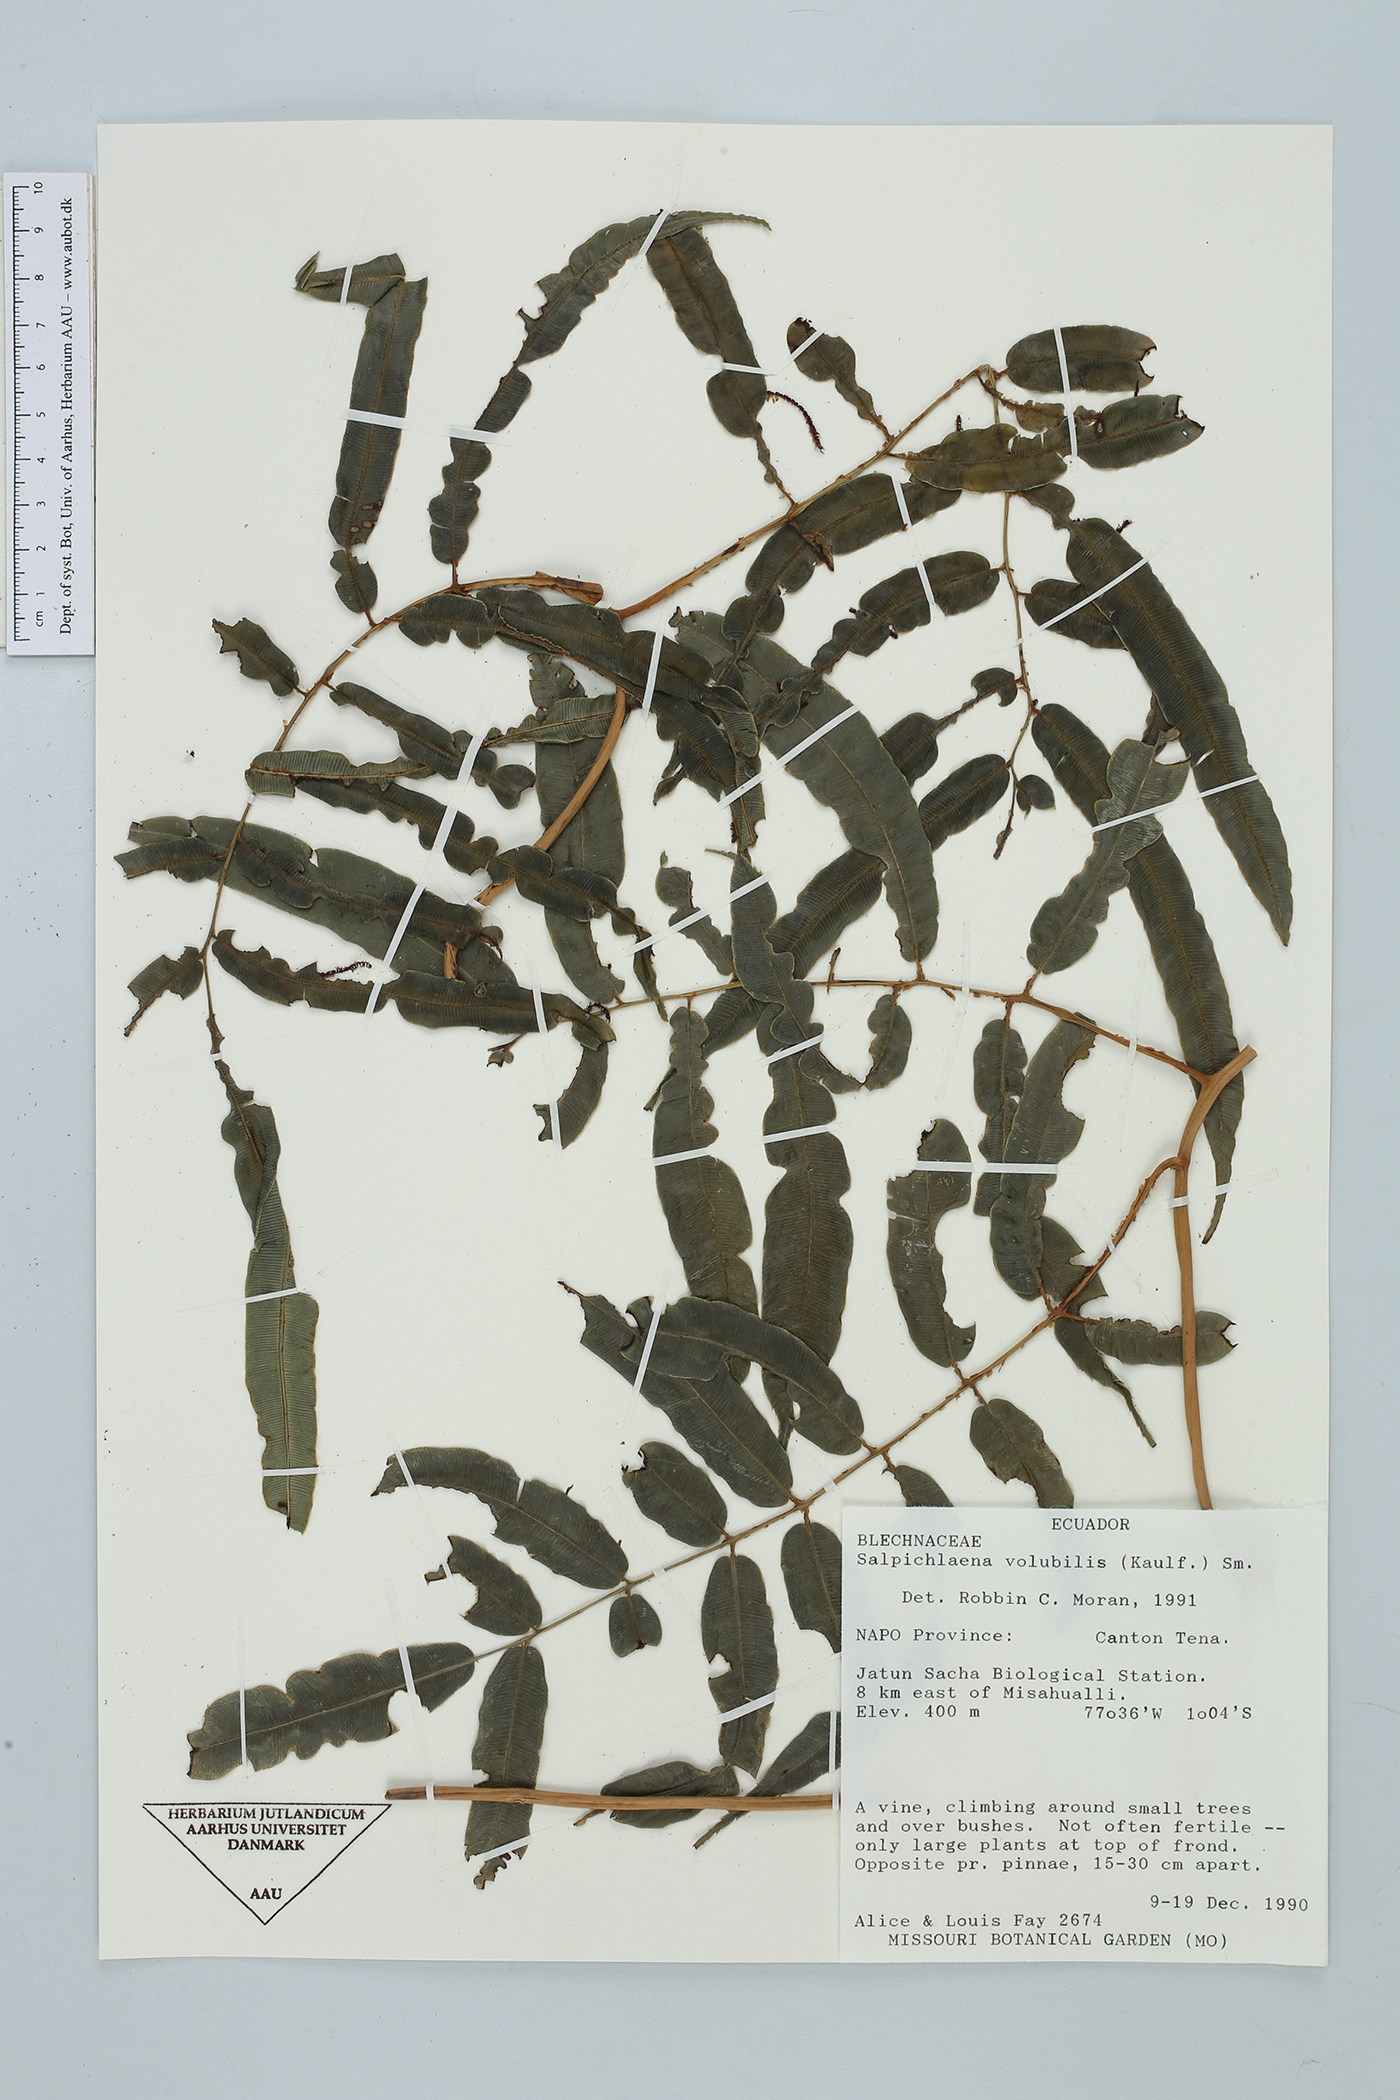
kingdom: Plantae
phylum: Tracheophyta
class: Polypodiopsida
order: Polypodiales
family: Blechnaceae
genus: Salpichlaena
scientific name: Salpichlaena volubilis
